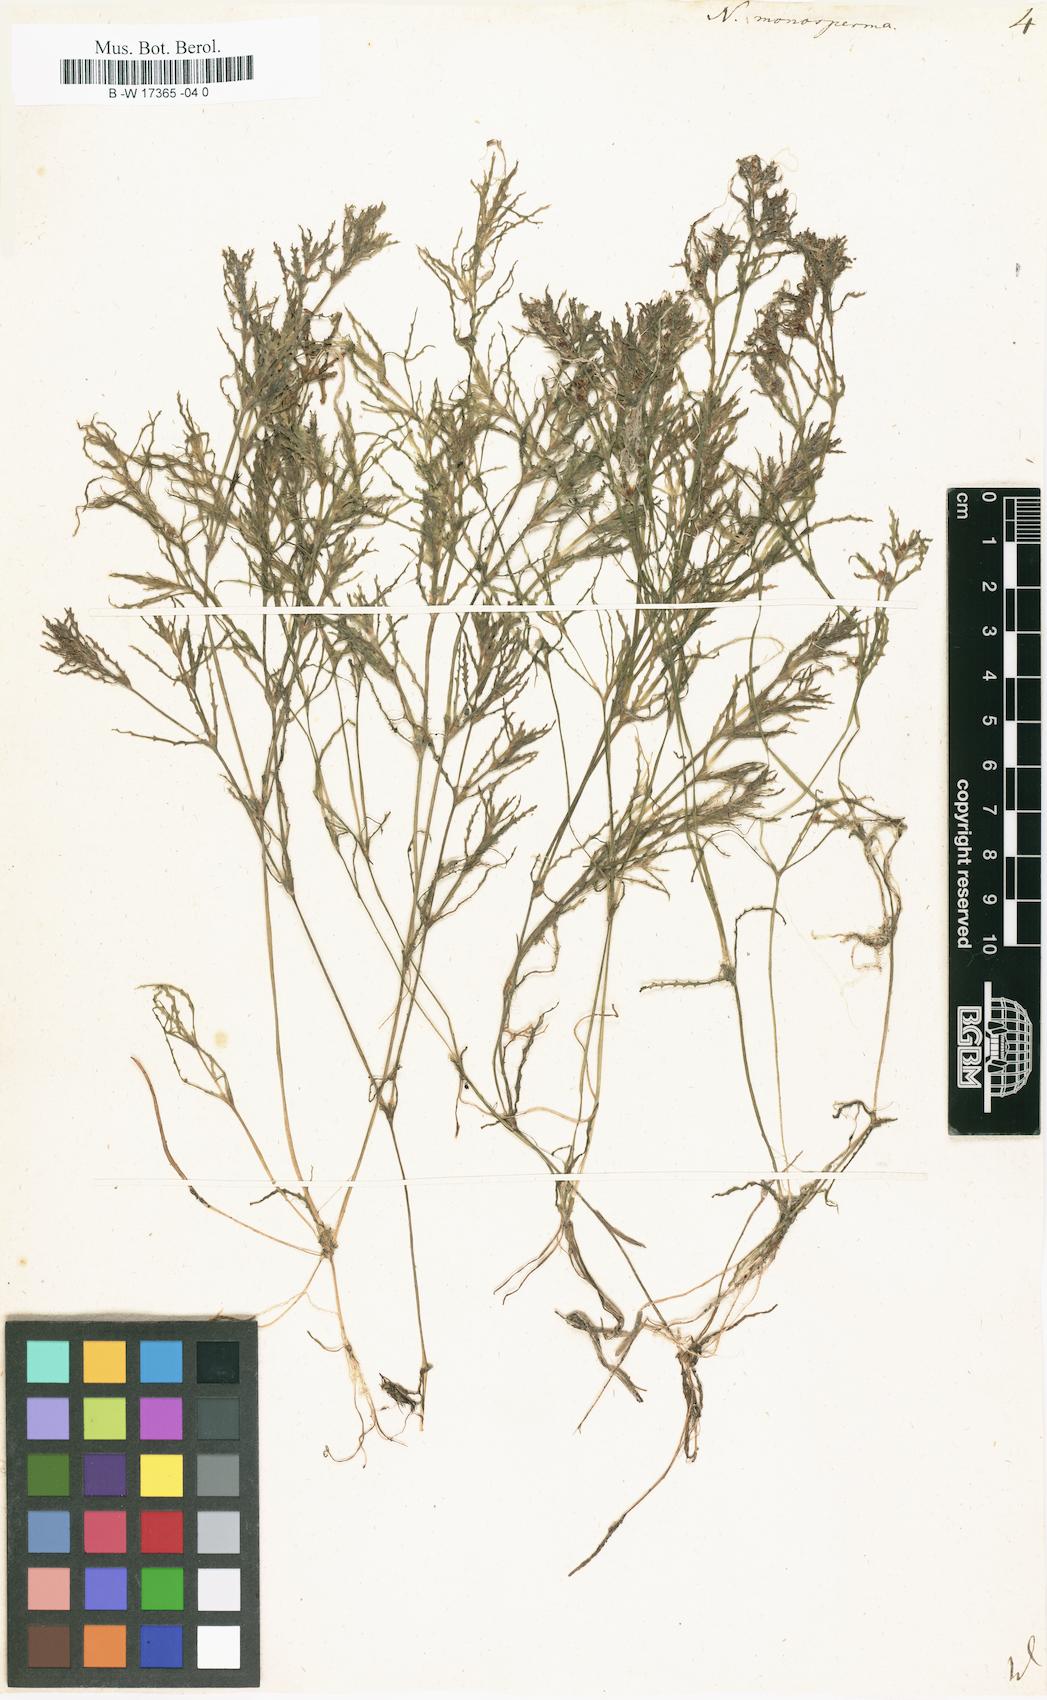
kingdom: Plantae
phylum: Tracheophyta
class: Liliopsida
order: Alismatales
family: Hydrocharitaceae
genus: Najas
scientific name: Najas major
